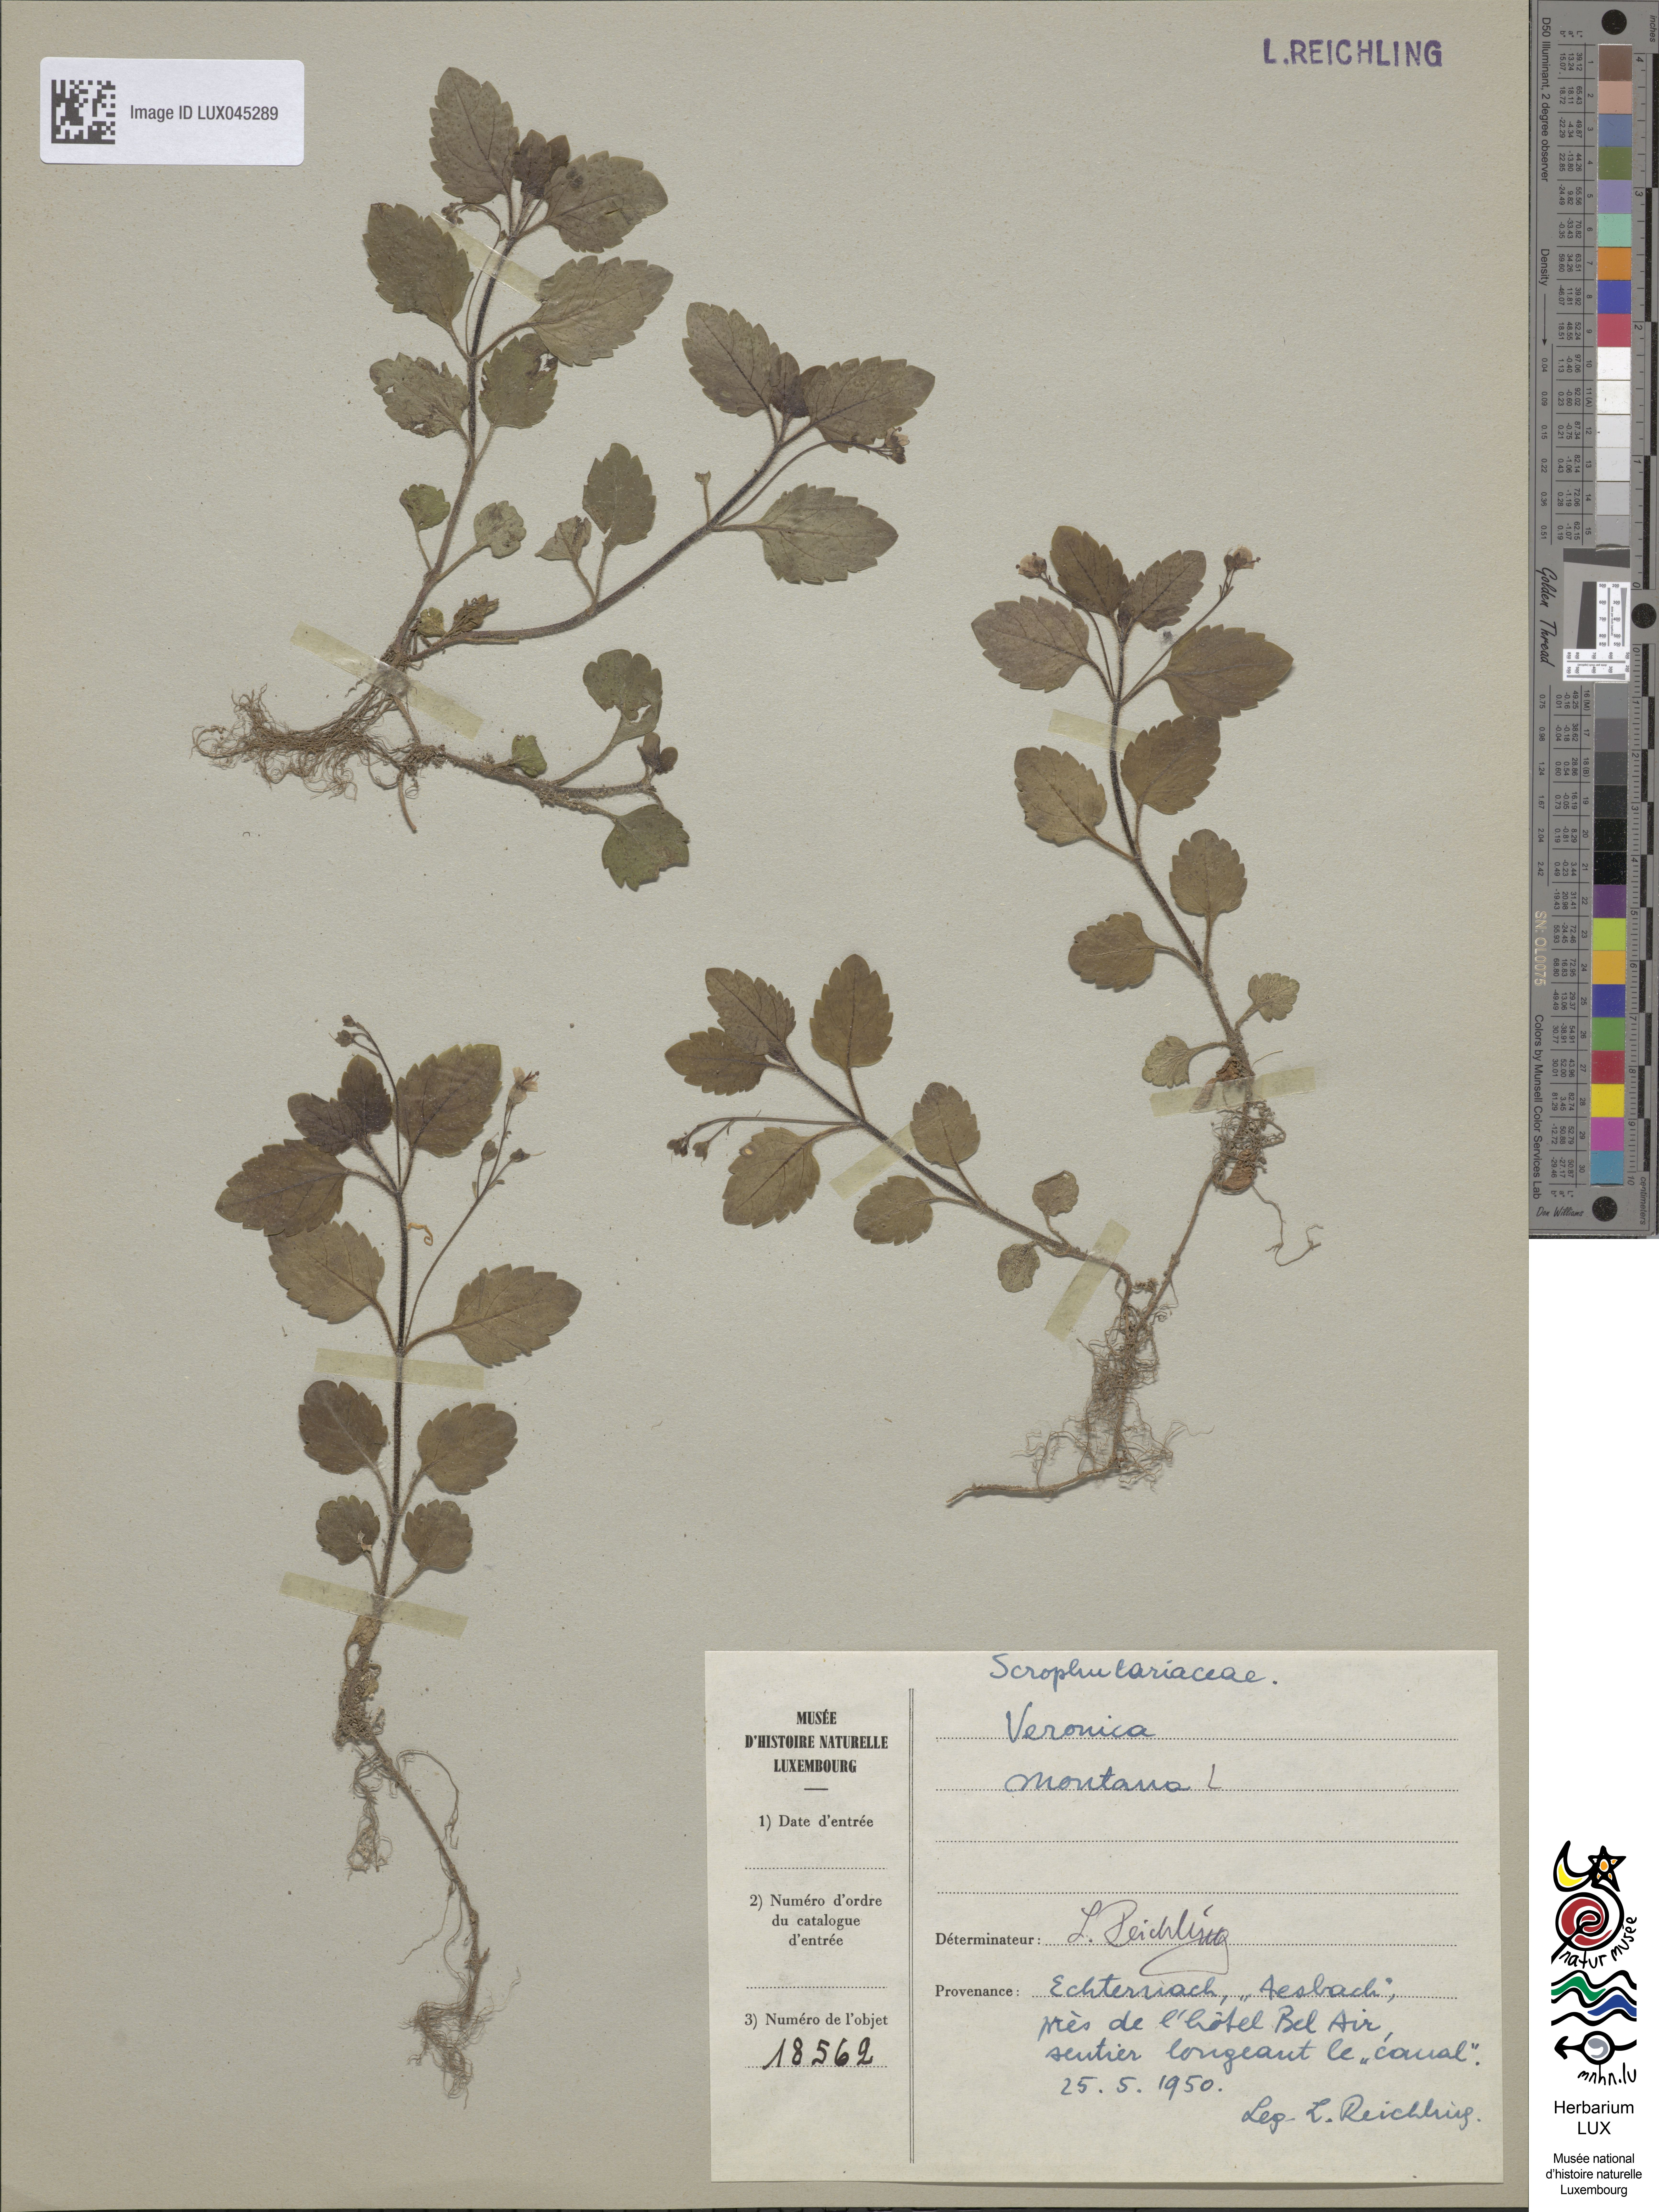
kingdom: Plantae
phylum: Tracheophyta
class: Magnoliopsida
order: Lamiales
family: Plantaginaceae
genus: Veronica
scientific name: Veronica montana
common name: Wood speedwell
